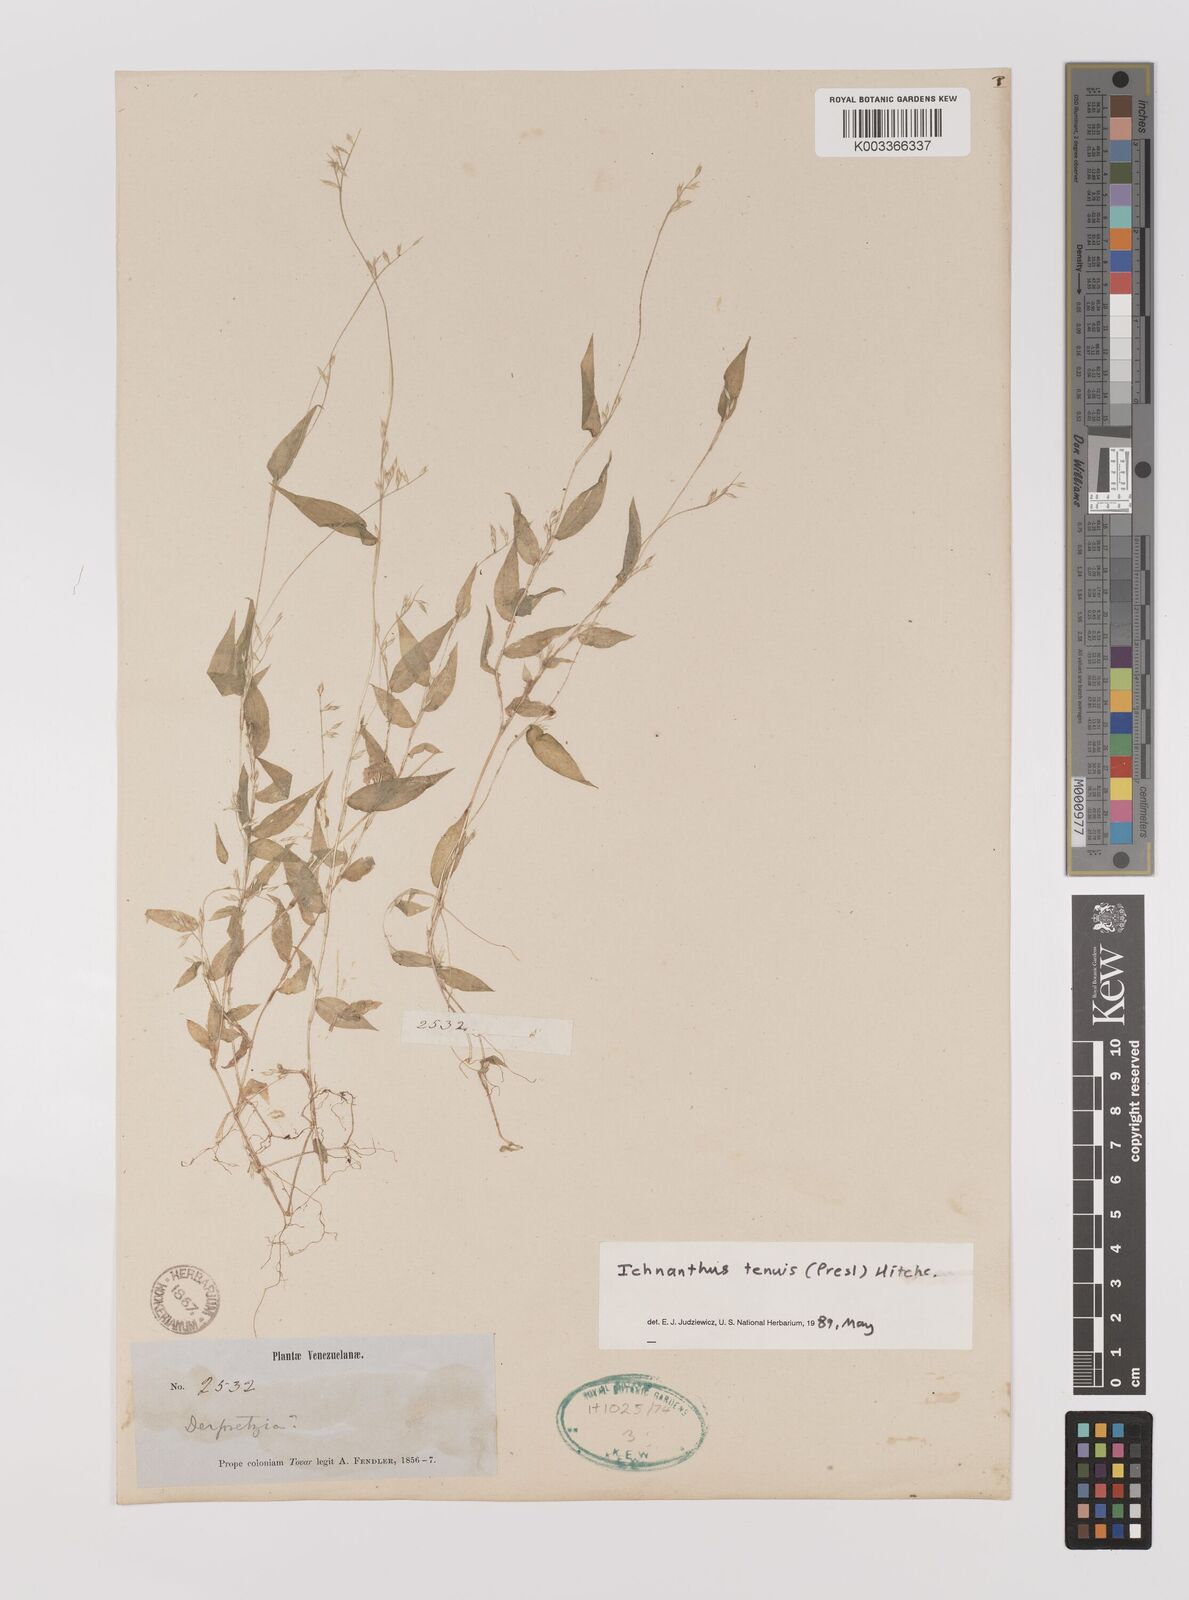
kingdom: Plantae
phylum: Tracheophyta
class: Liliopsida
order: Poales
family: Poaceae
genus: Ichnanthus
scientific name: Ichnanthus tenuis
